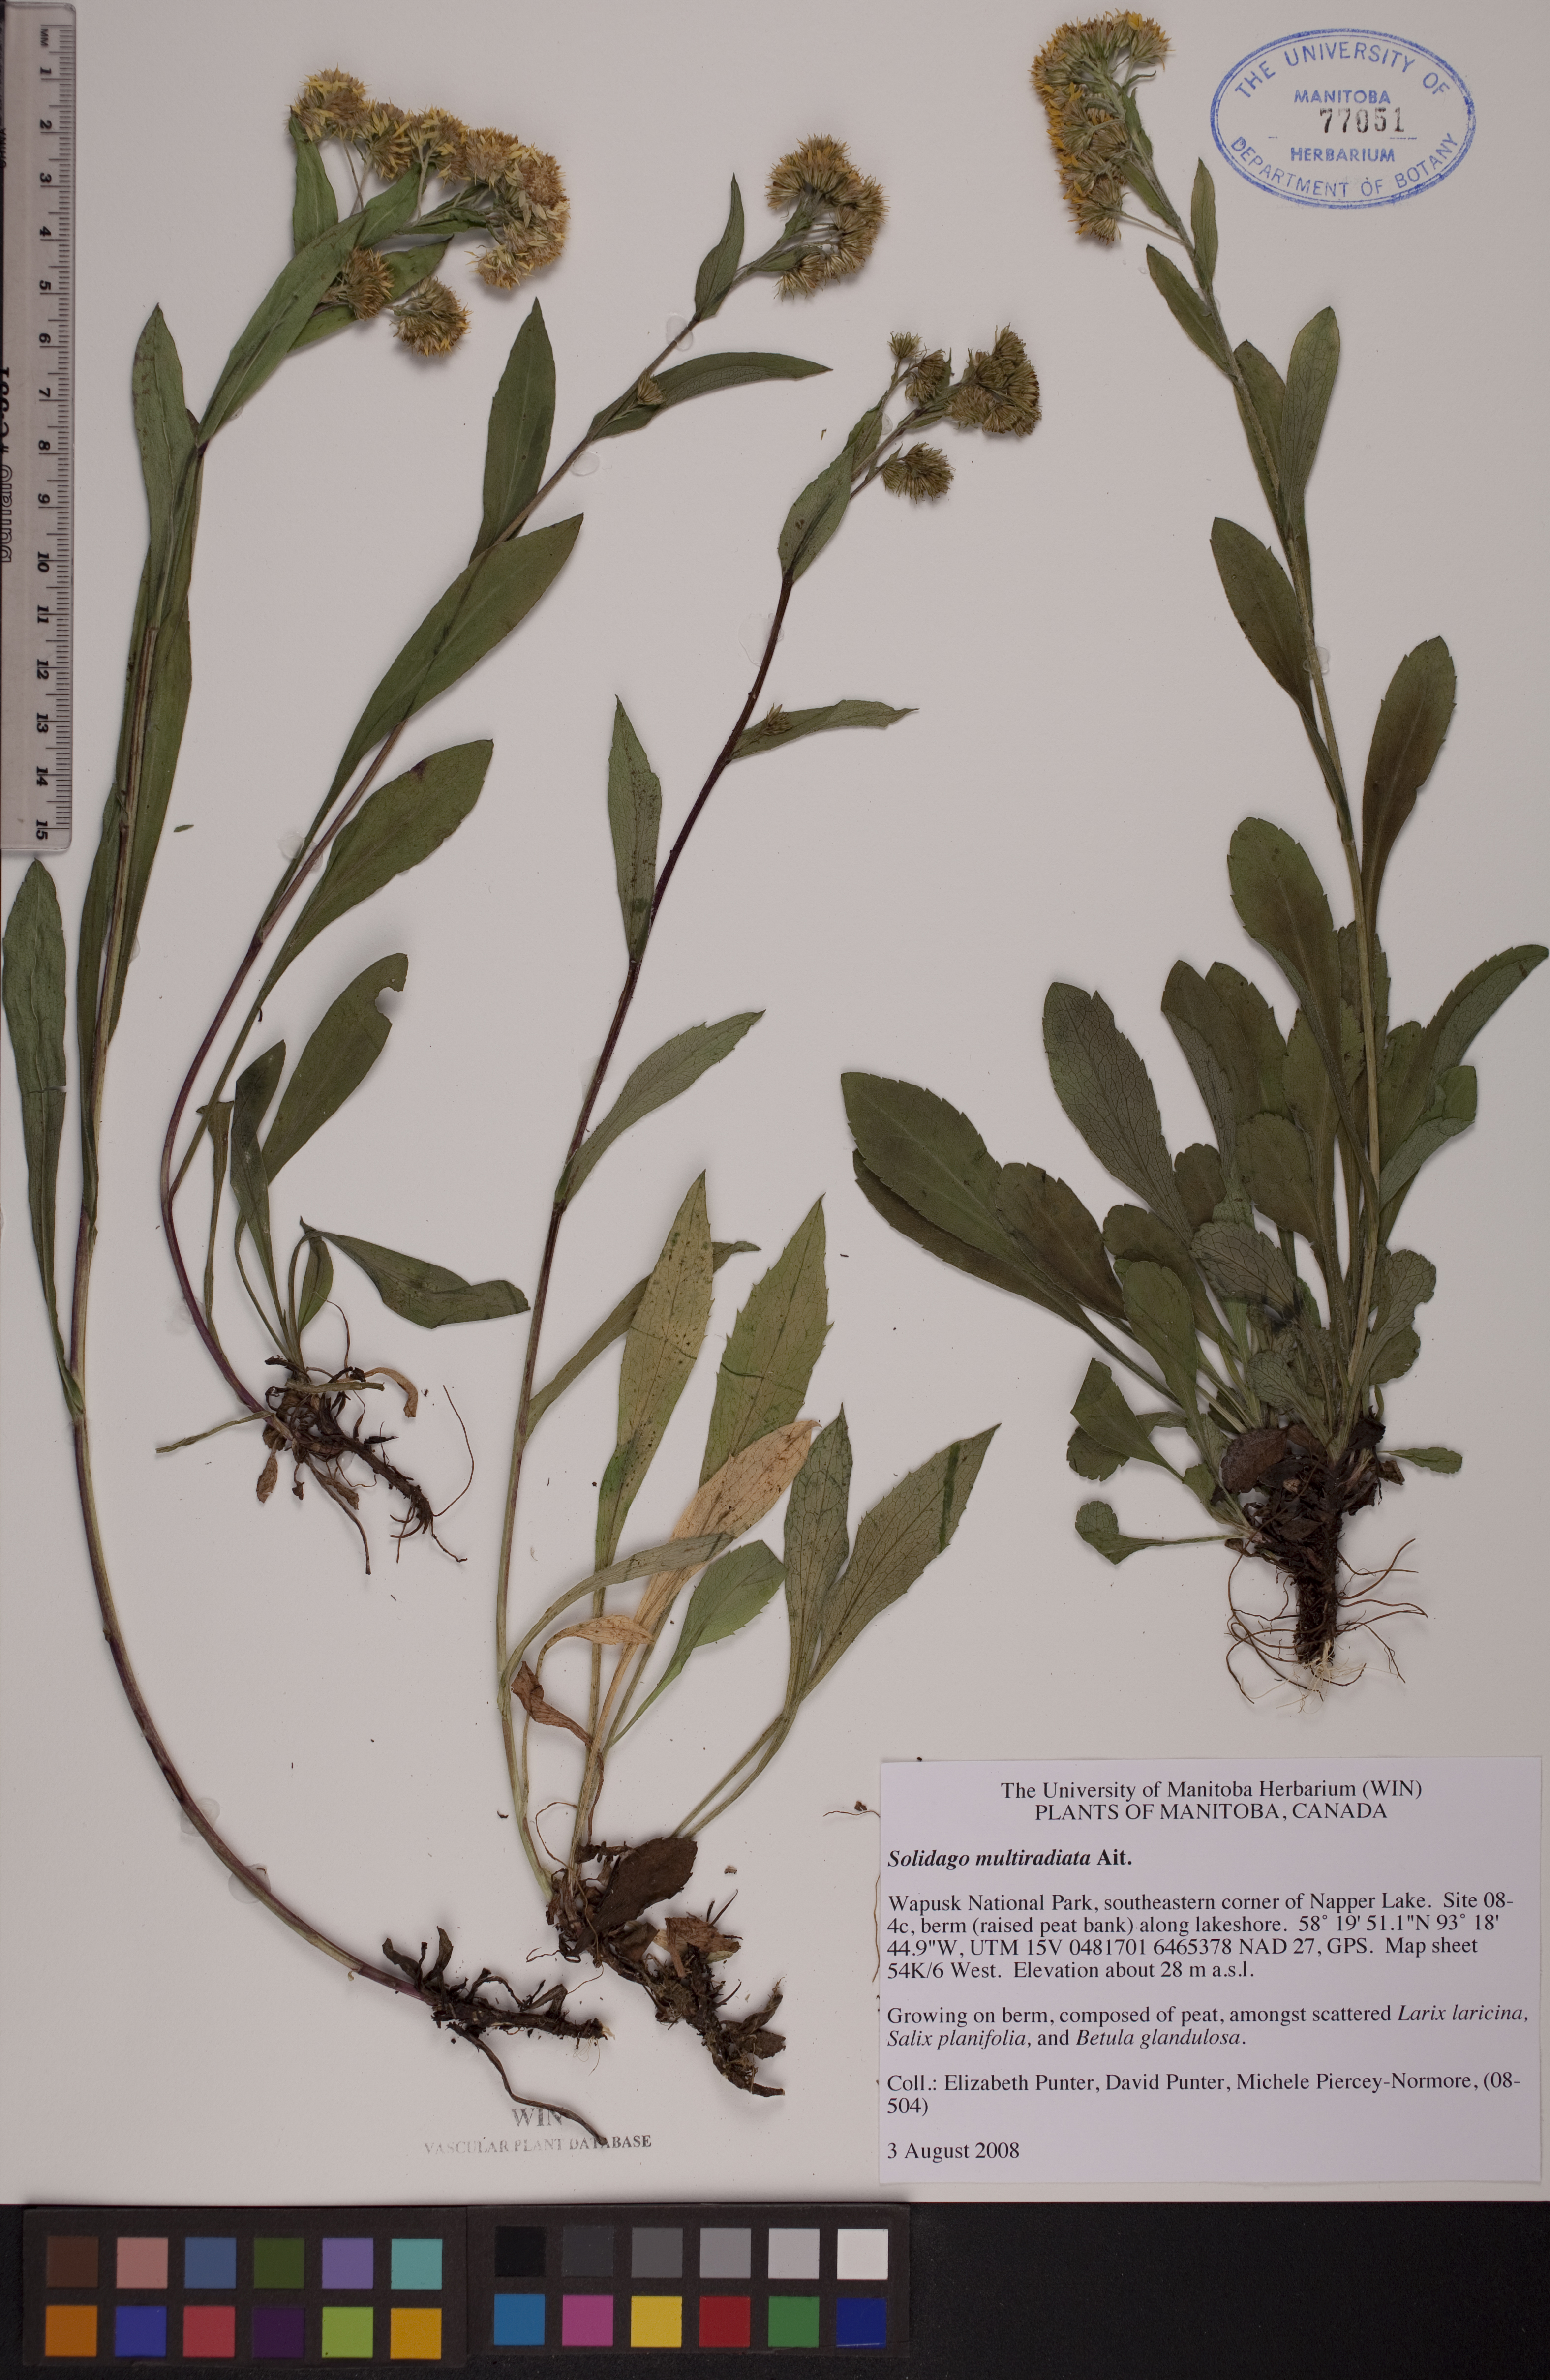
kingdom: Plantae
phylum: Tracheophyta
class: Magnoliopsida
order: Asterales
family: Asteraceae
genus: Solidago
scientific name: Solidago multiradiata
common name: Northern goldenrod
